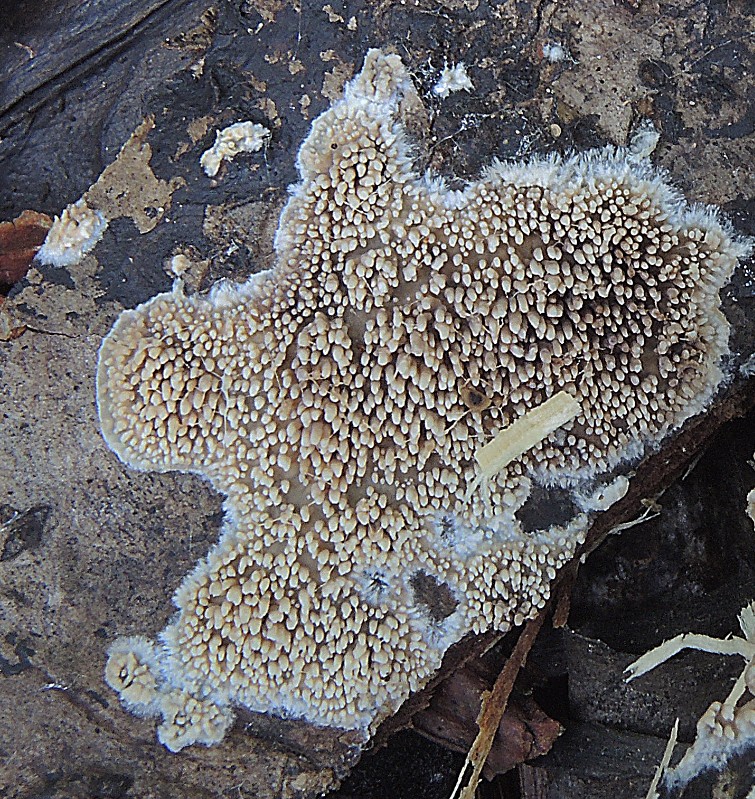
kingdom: Fungi
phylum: Basidiomycota
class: Agaricomycetes
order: Polyporales
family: Meruliaceae
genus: Mycoacia
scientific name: Mycoacia fuscoatra
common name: mørk vokspig
